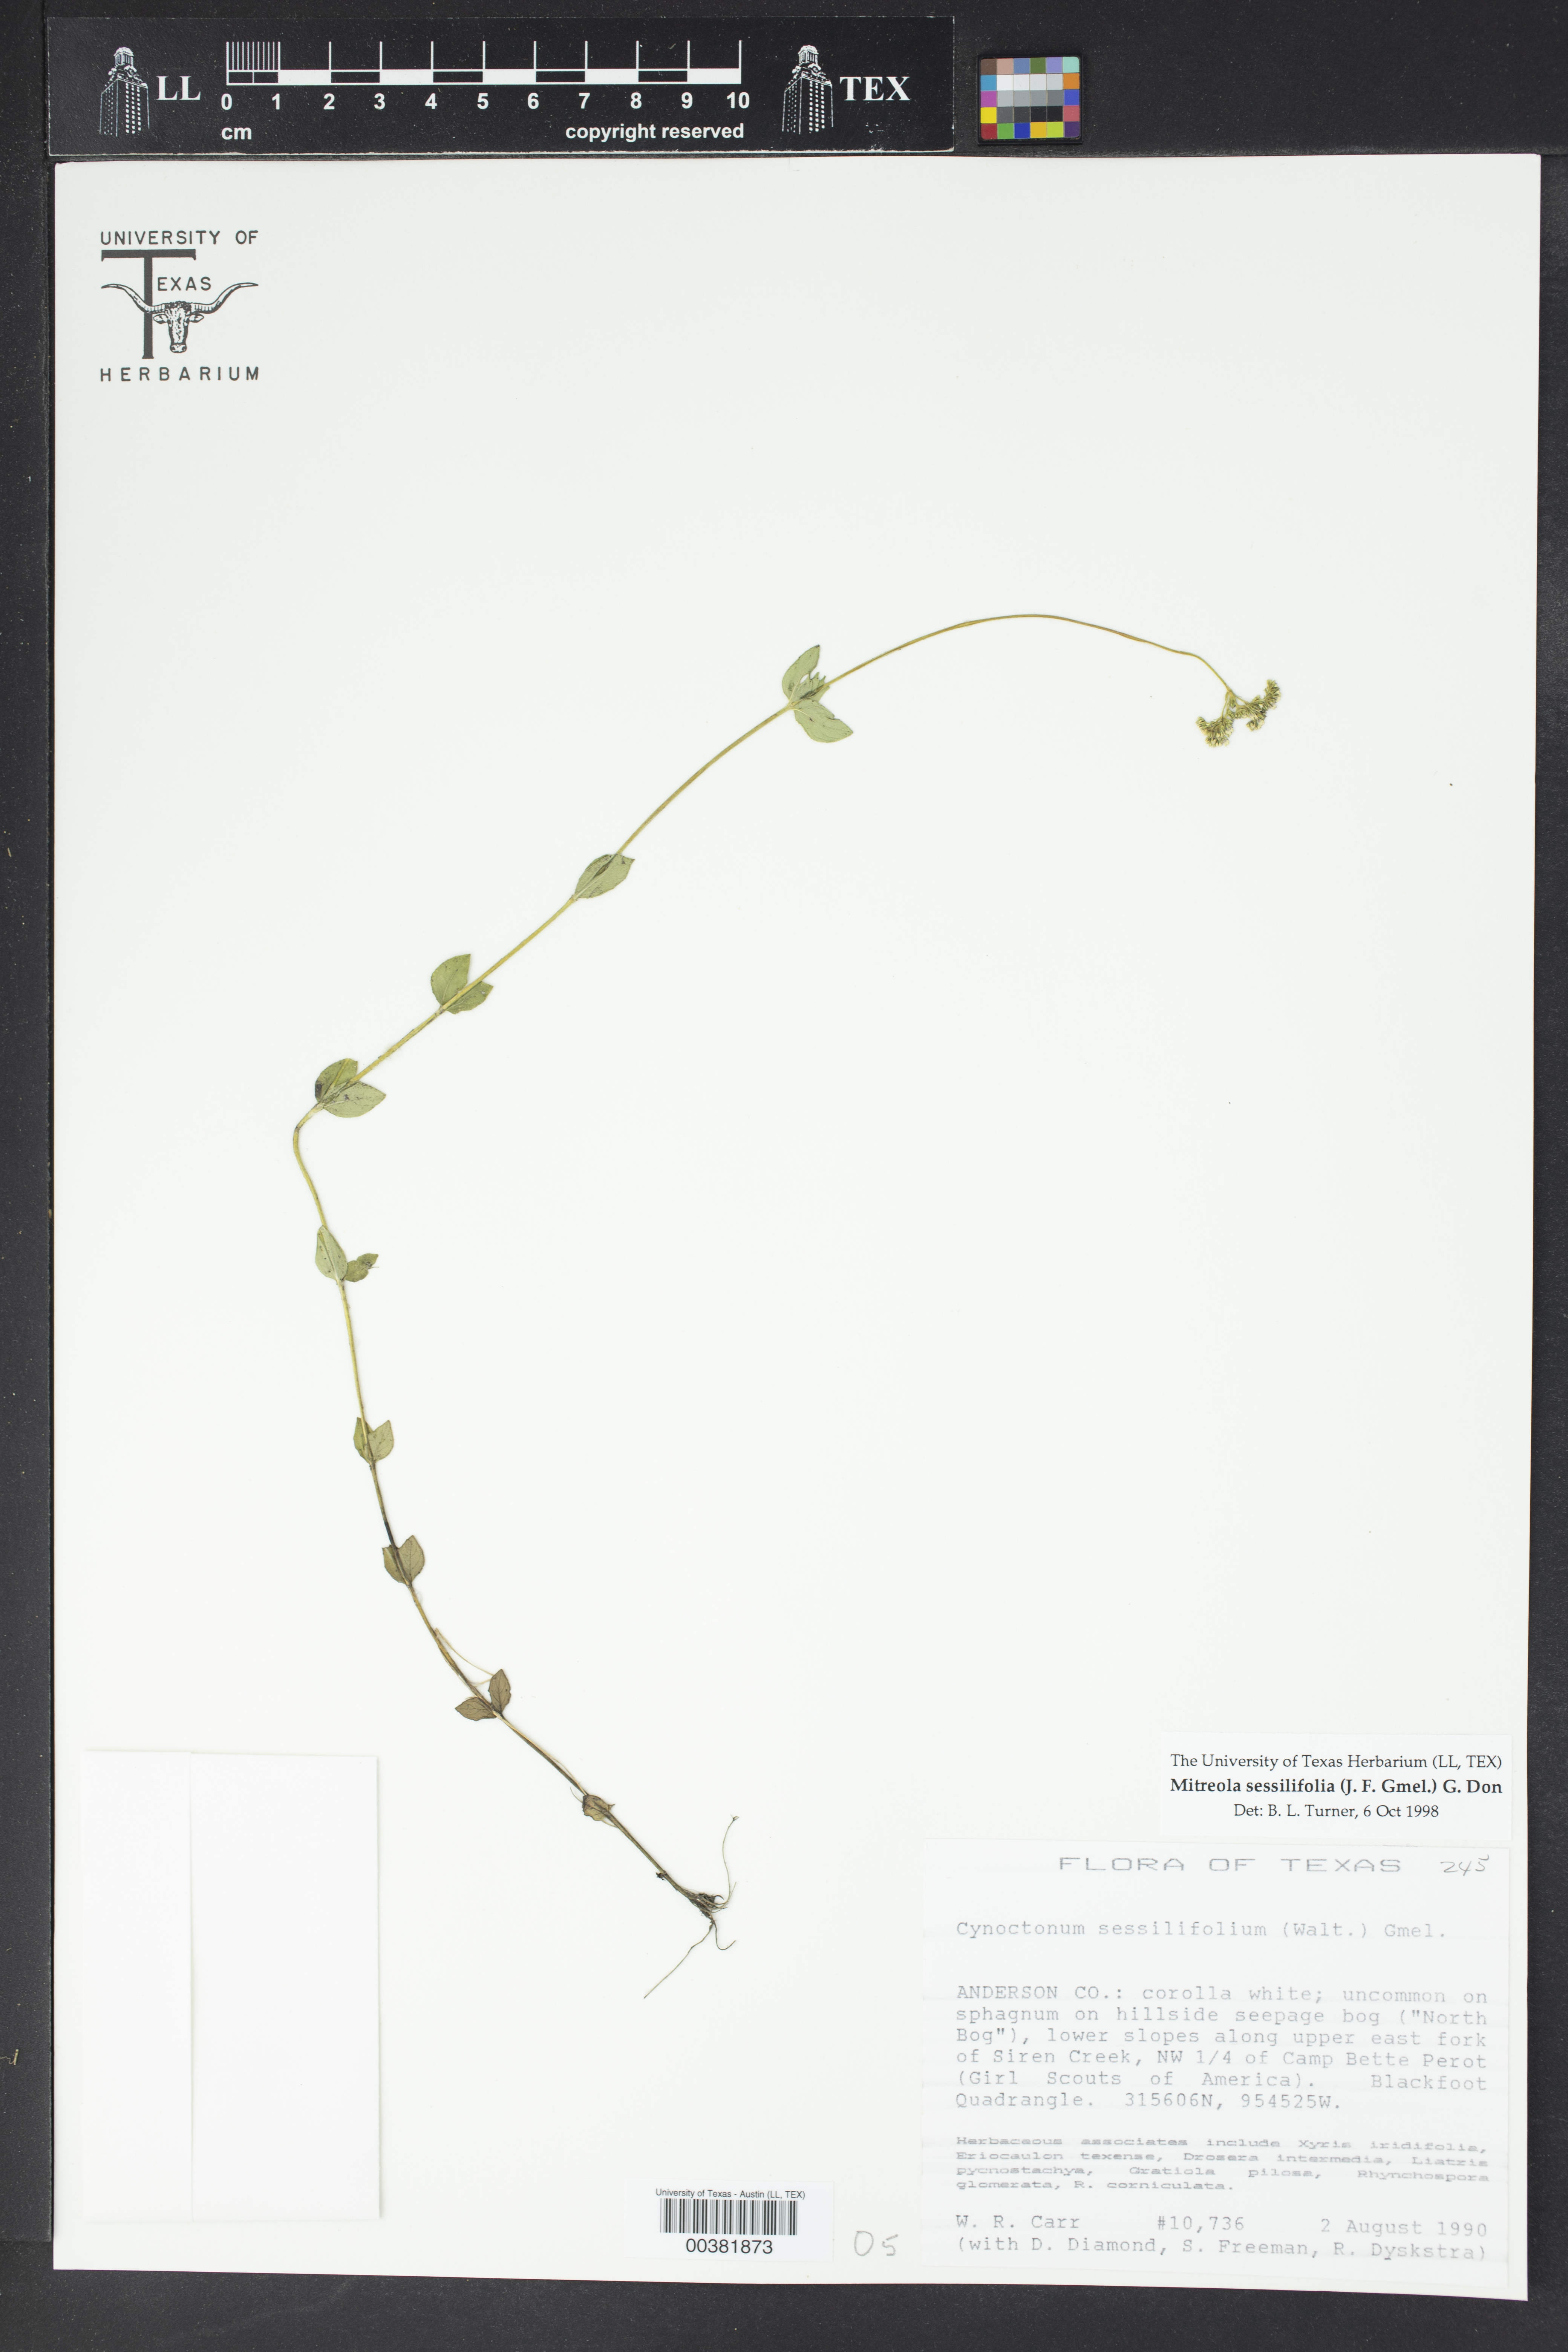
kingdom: Plantae
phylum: Tracheophyta
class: Magnoliopsida
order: Gentianales
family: Loganiaceae
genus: Mitreola
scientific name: Mitreola sessilifolia
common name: Swamp hornpod
